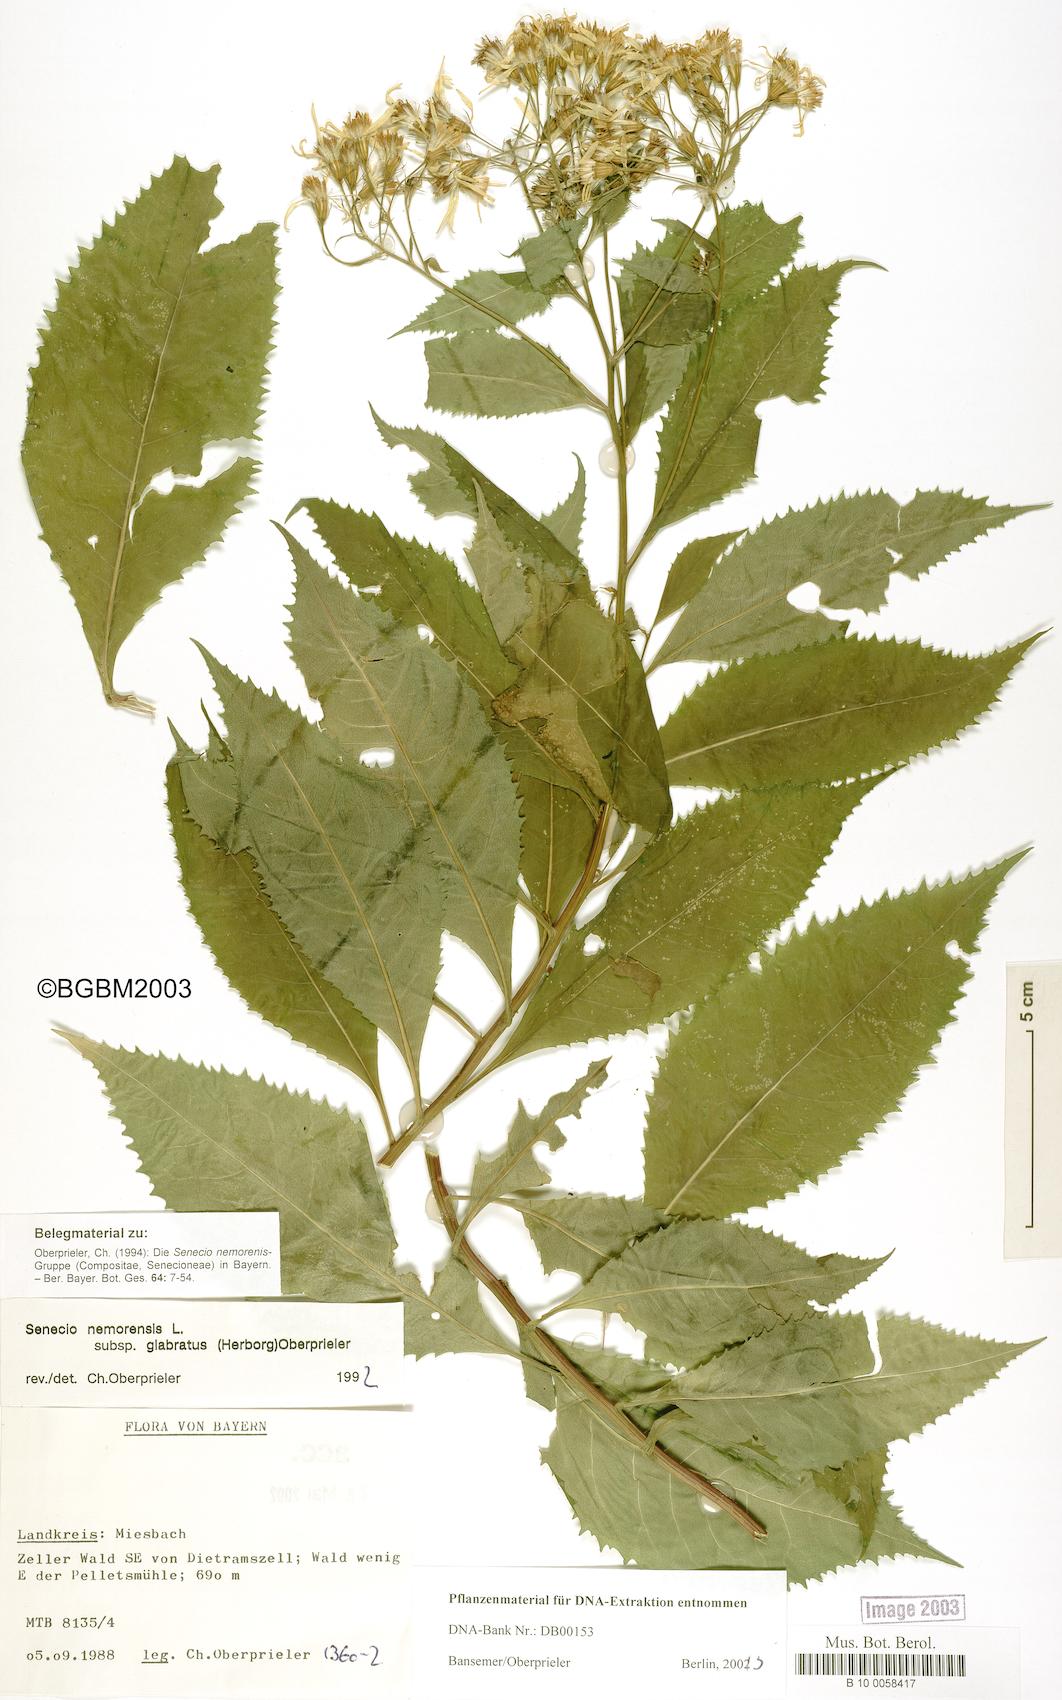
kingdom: Plantae
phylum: Tracheophyta
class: Magnoliopsida
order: Asterales
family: Asteraceae
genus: Senecio
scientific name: Senecio germanicus
